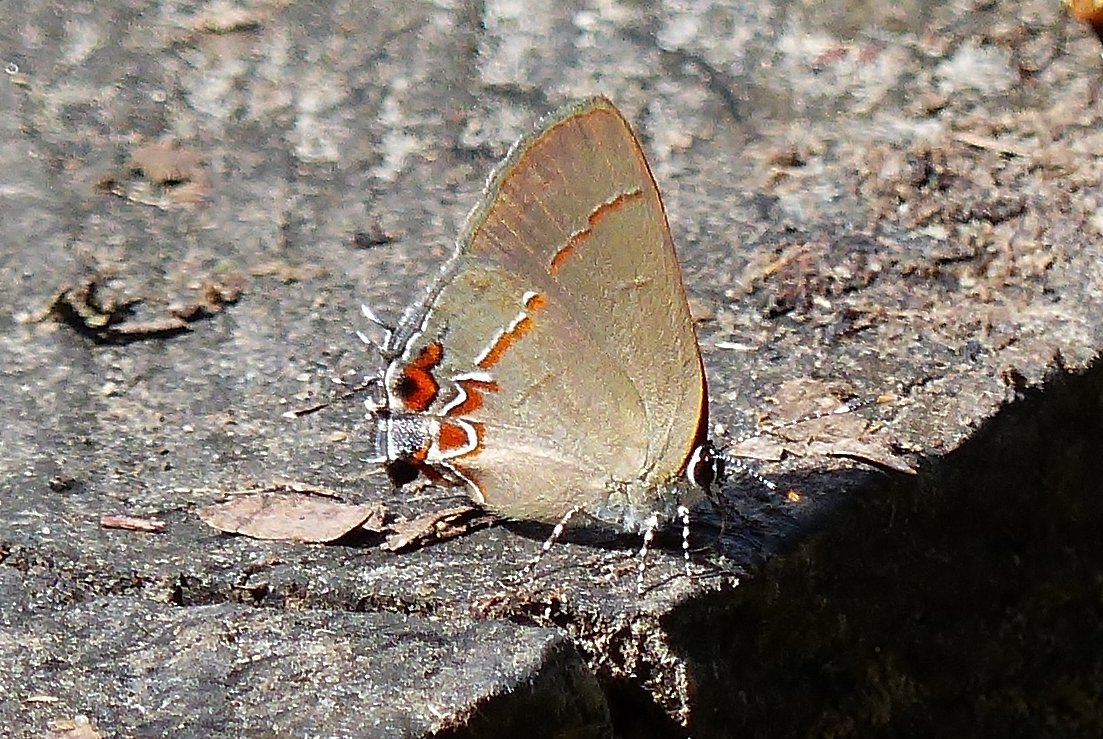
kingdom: Animalia
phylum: Arthropoda
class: Insecta
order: Lepidoptera
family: Lycaenidae
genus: Calycopis
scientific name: Calycopis isobeon
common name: Dusky-blue Groundstreak
